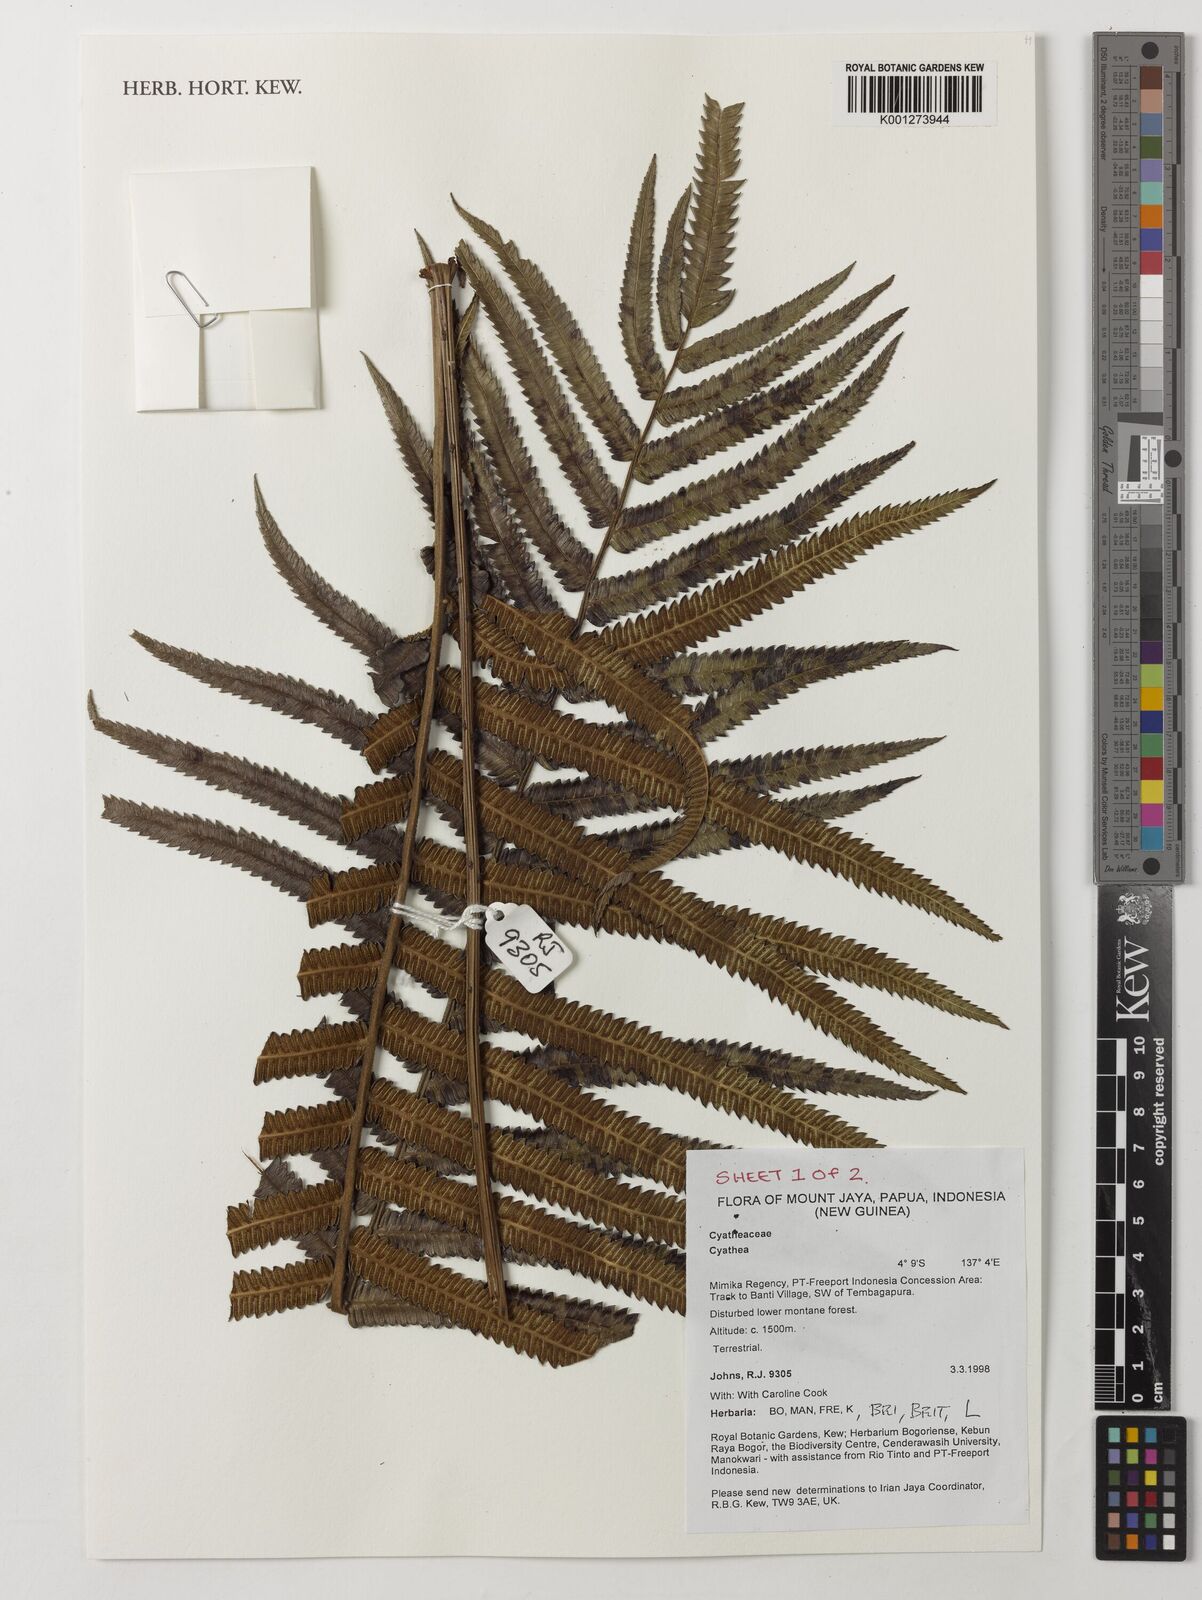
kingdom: Plantae
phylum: Tracheophyta
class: Polypodiopsida
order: Cyatheales
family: Cyatheaceae
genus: Cyathea
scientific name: Cyathea
